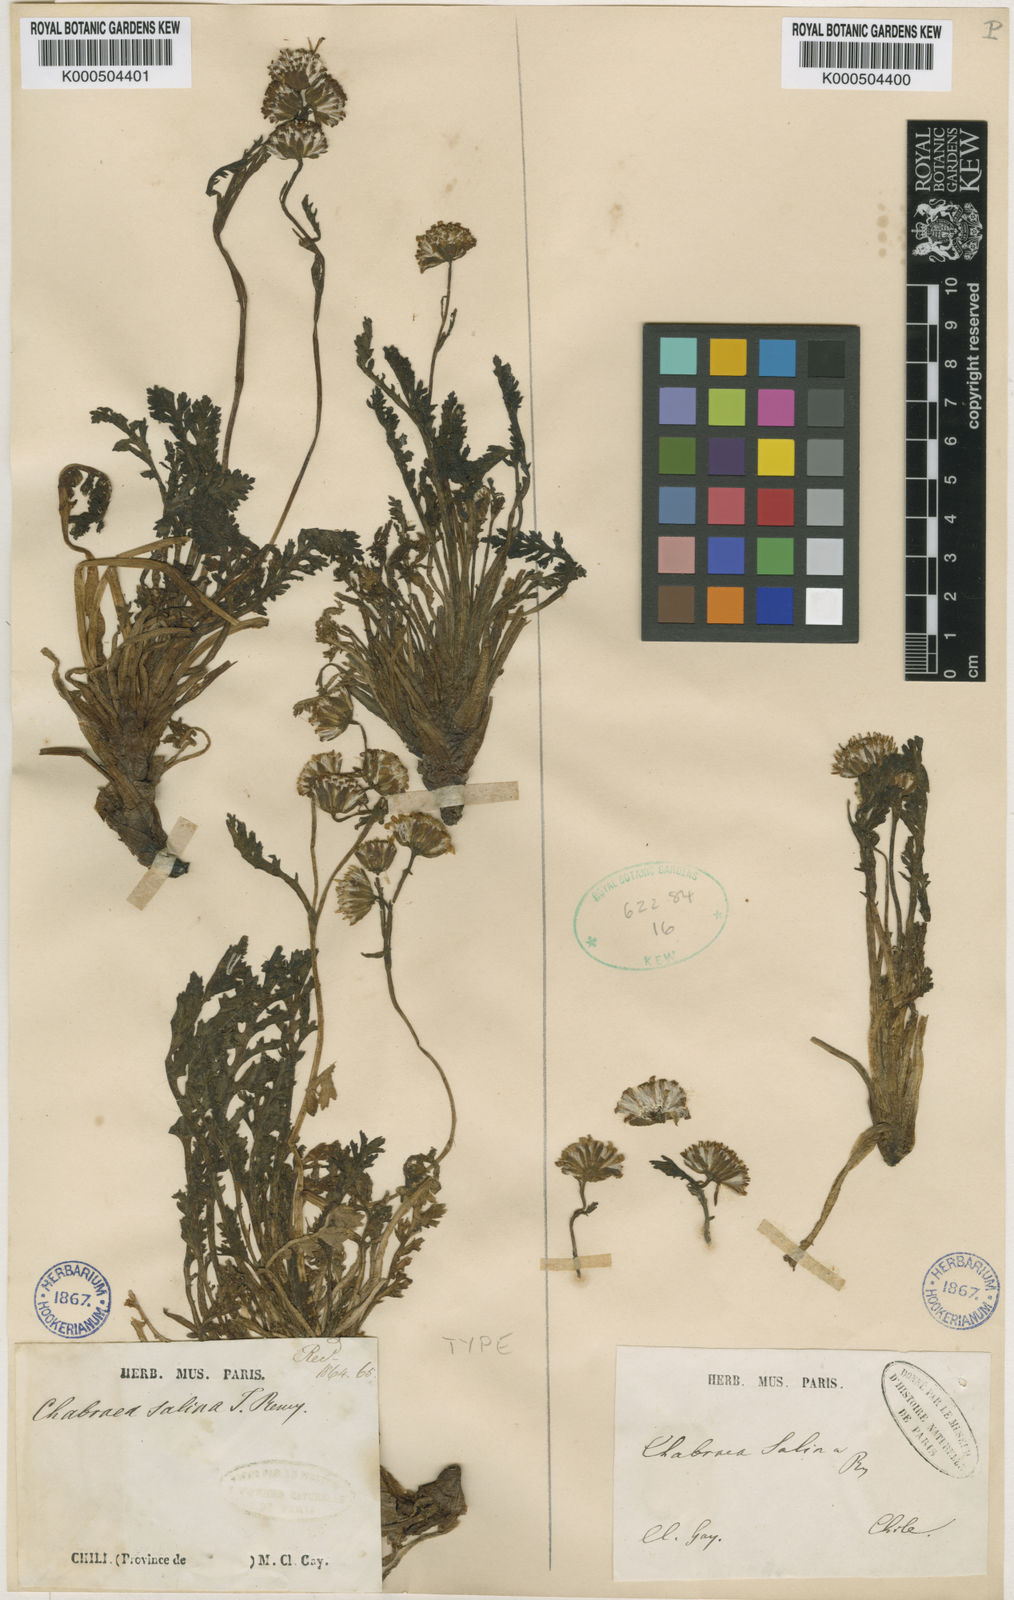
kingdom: Plantae
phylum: Tracheophyta
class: Magnoliopsida
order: Asterales
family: Asteraceae
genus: Leucheria
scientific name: Leucheria
